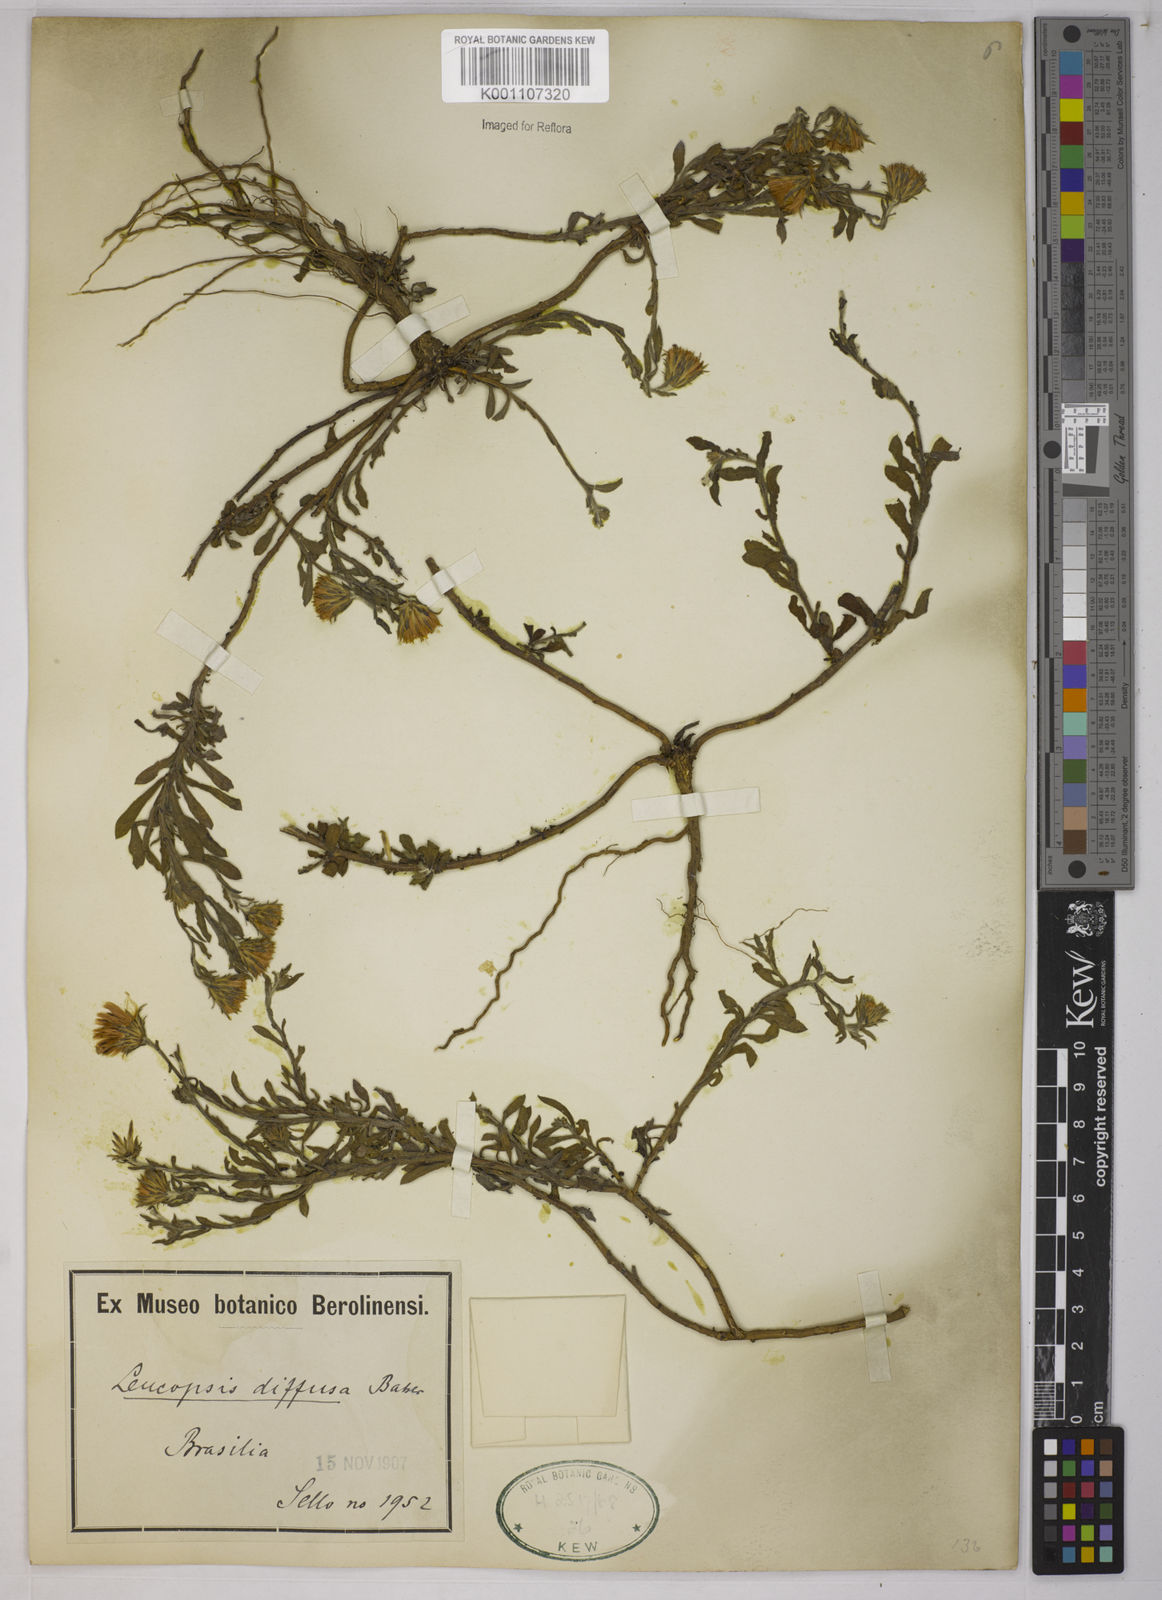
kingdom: Plantae
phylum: Tracheophyta
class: Magnoliopsida
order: Asterales
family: Asteraceae
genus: Noticastrum
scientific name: Noticastrum diffusum
